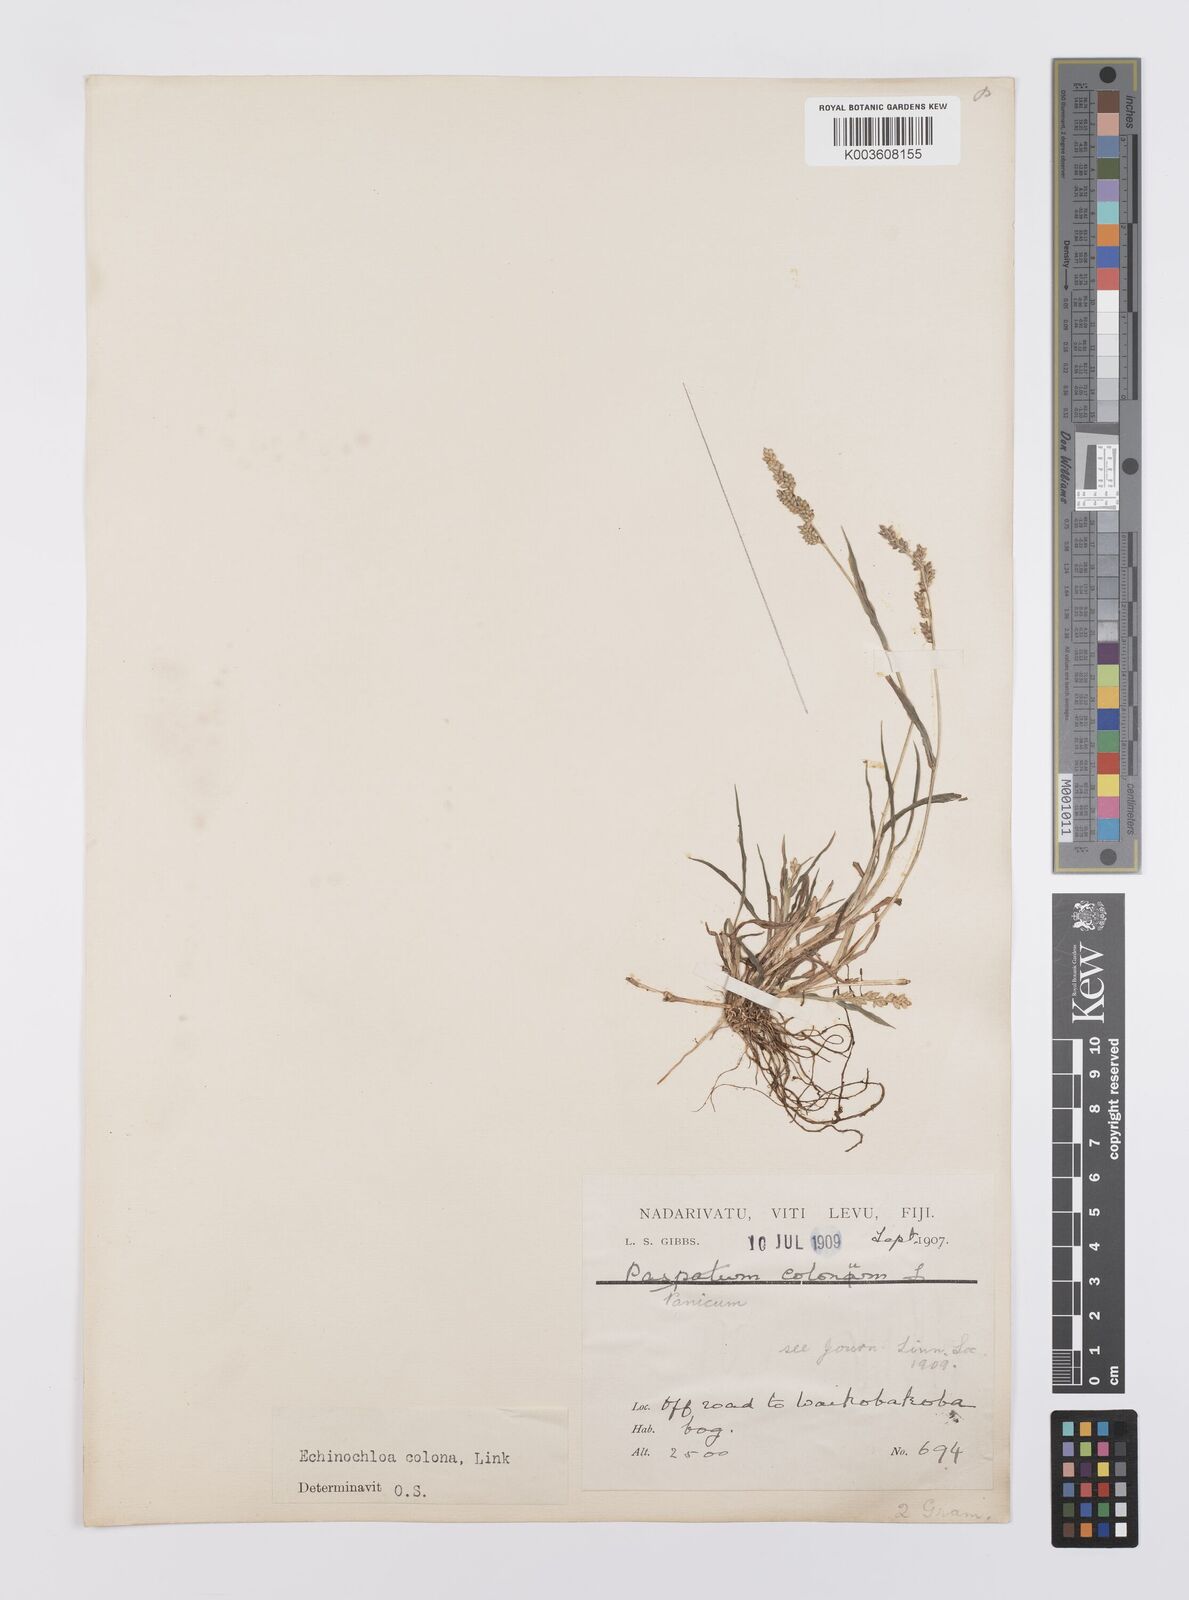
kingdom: Plantae
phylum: Tracheophyta
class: Liliopsida
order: Poales
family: Poaceae
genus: Echinochloa
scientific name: Echinochloa colonum
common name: Jungle rice
